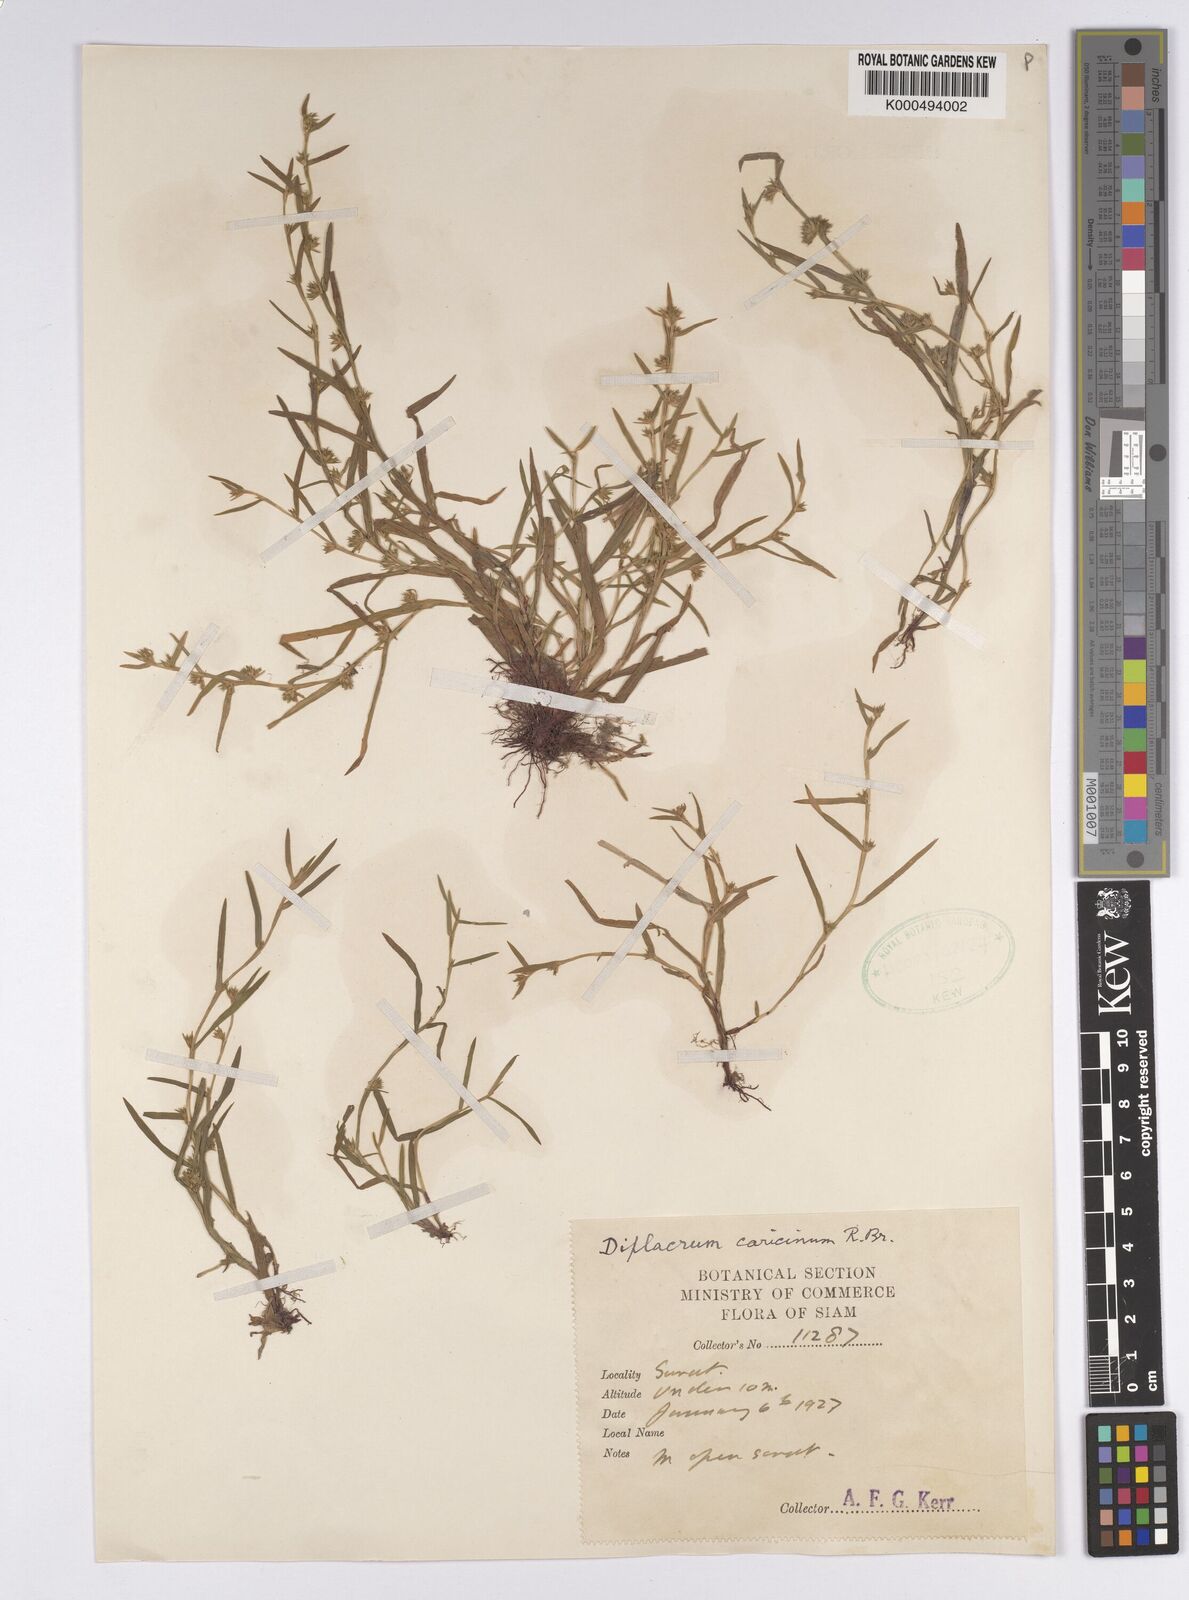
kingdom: Plantae
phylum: Tracheophyta
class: Liliopsida
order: Poales
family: Cyperaceae
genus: Diplacrum
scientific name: Diplacrum caricinum
